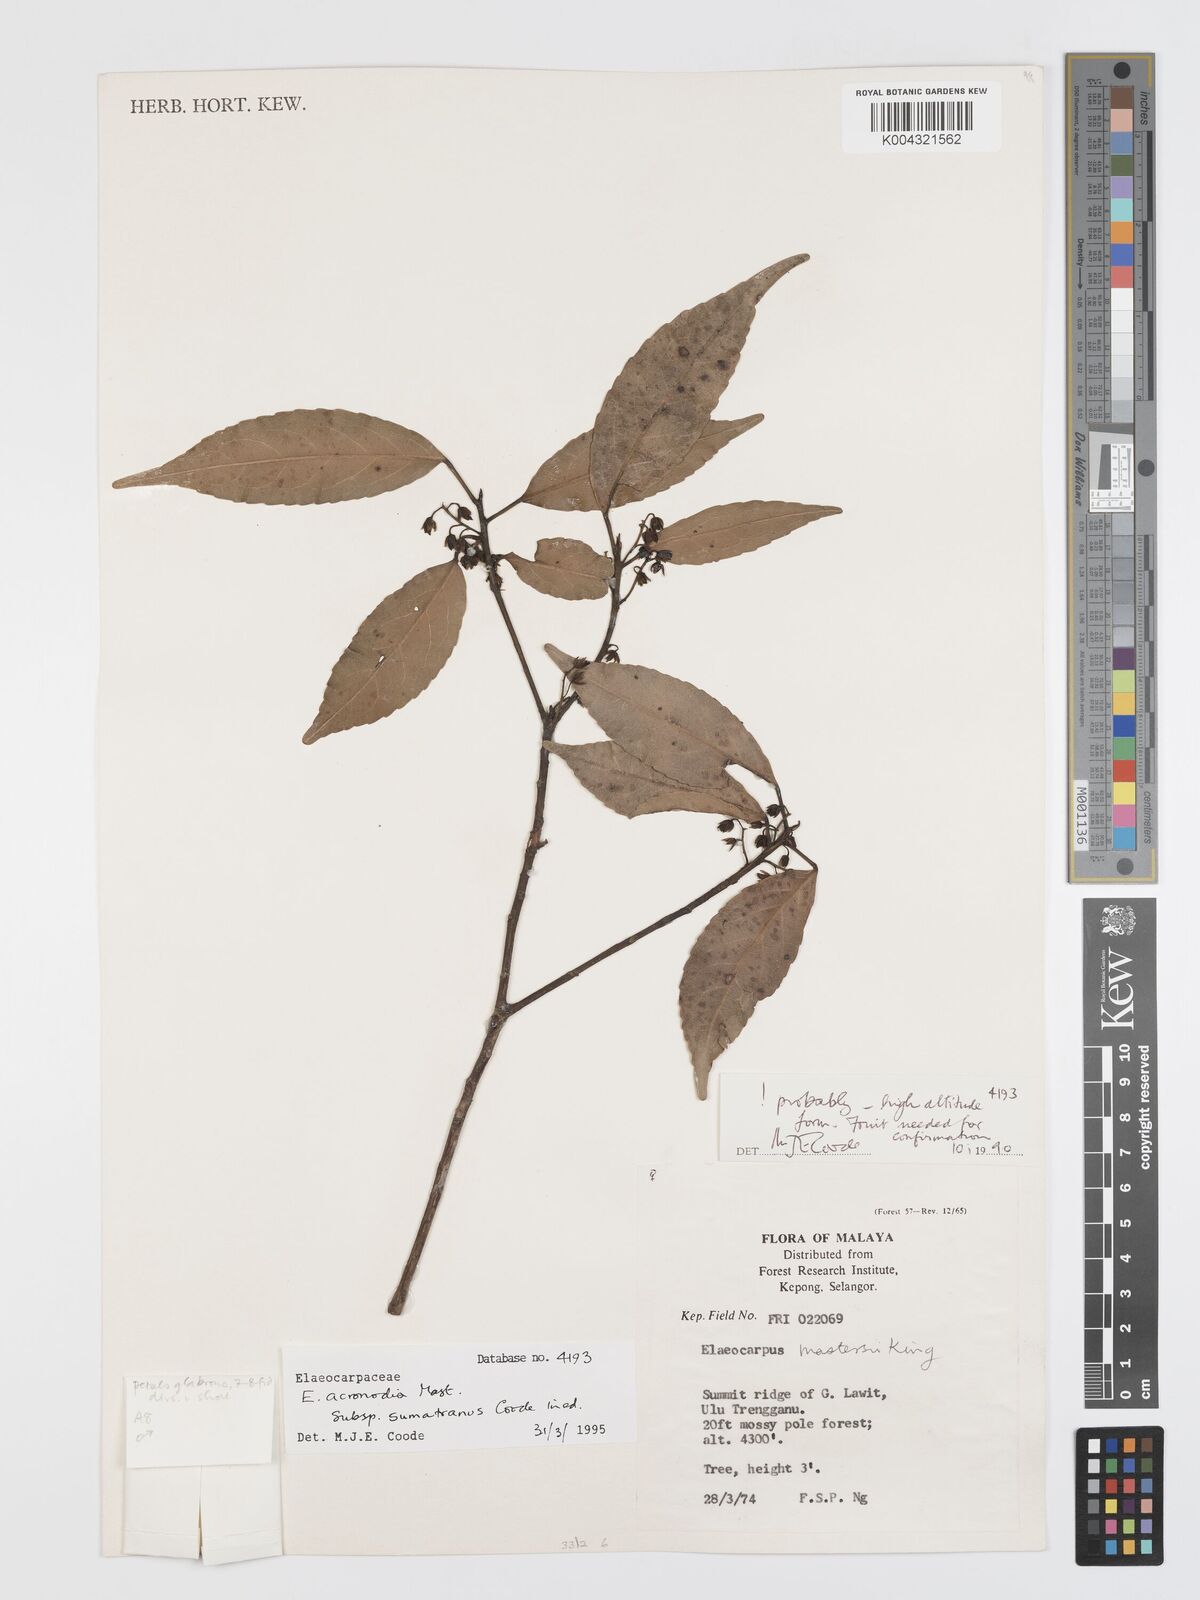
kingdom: Plantae
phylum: Tracheophyta
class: Magnoliopsida
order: Oxalidales
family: Elaeocarpaceae
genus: Elaeocarpus
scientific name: Elaeocarpus acronodia
